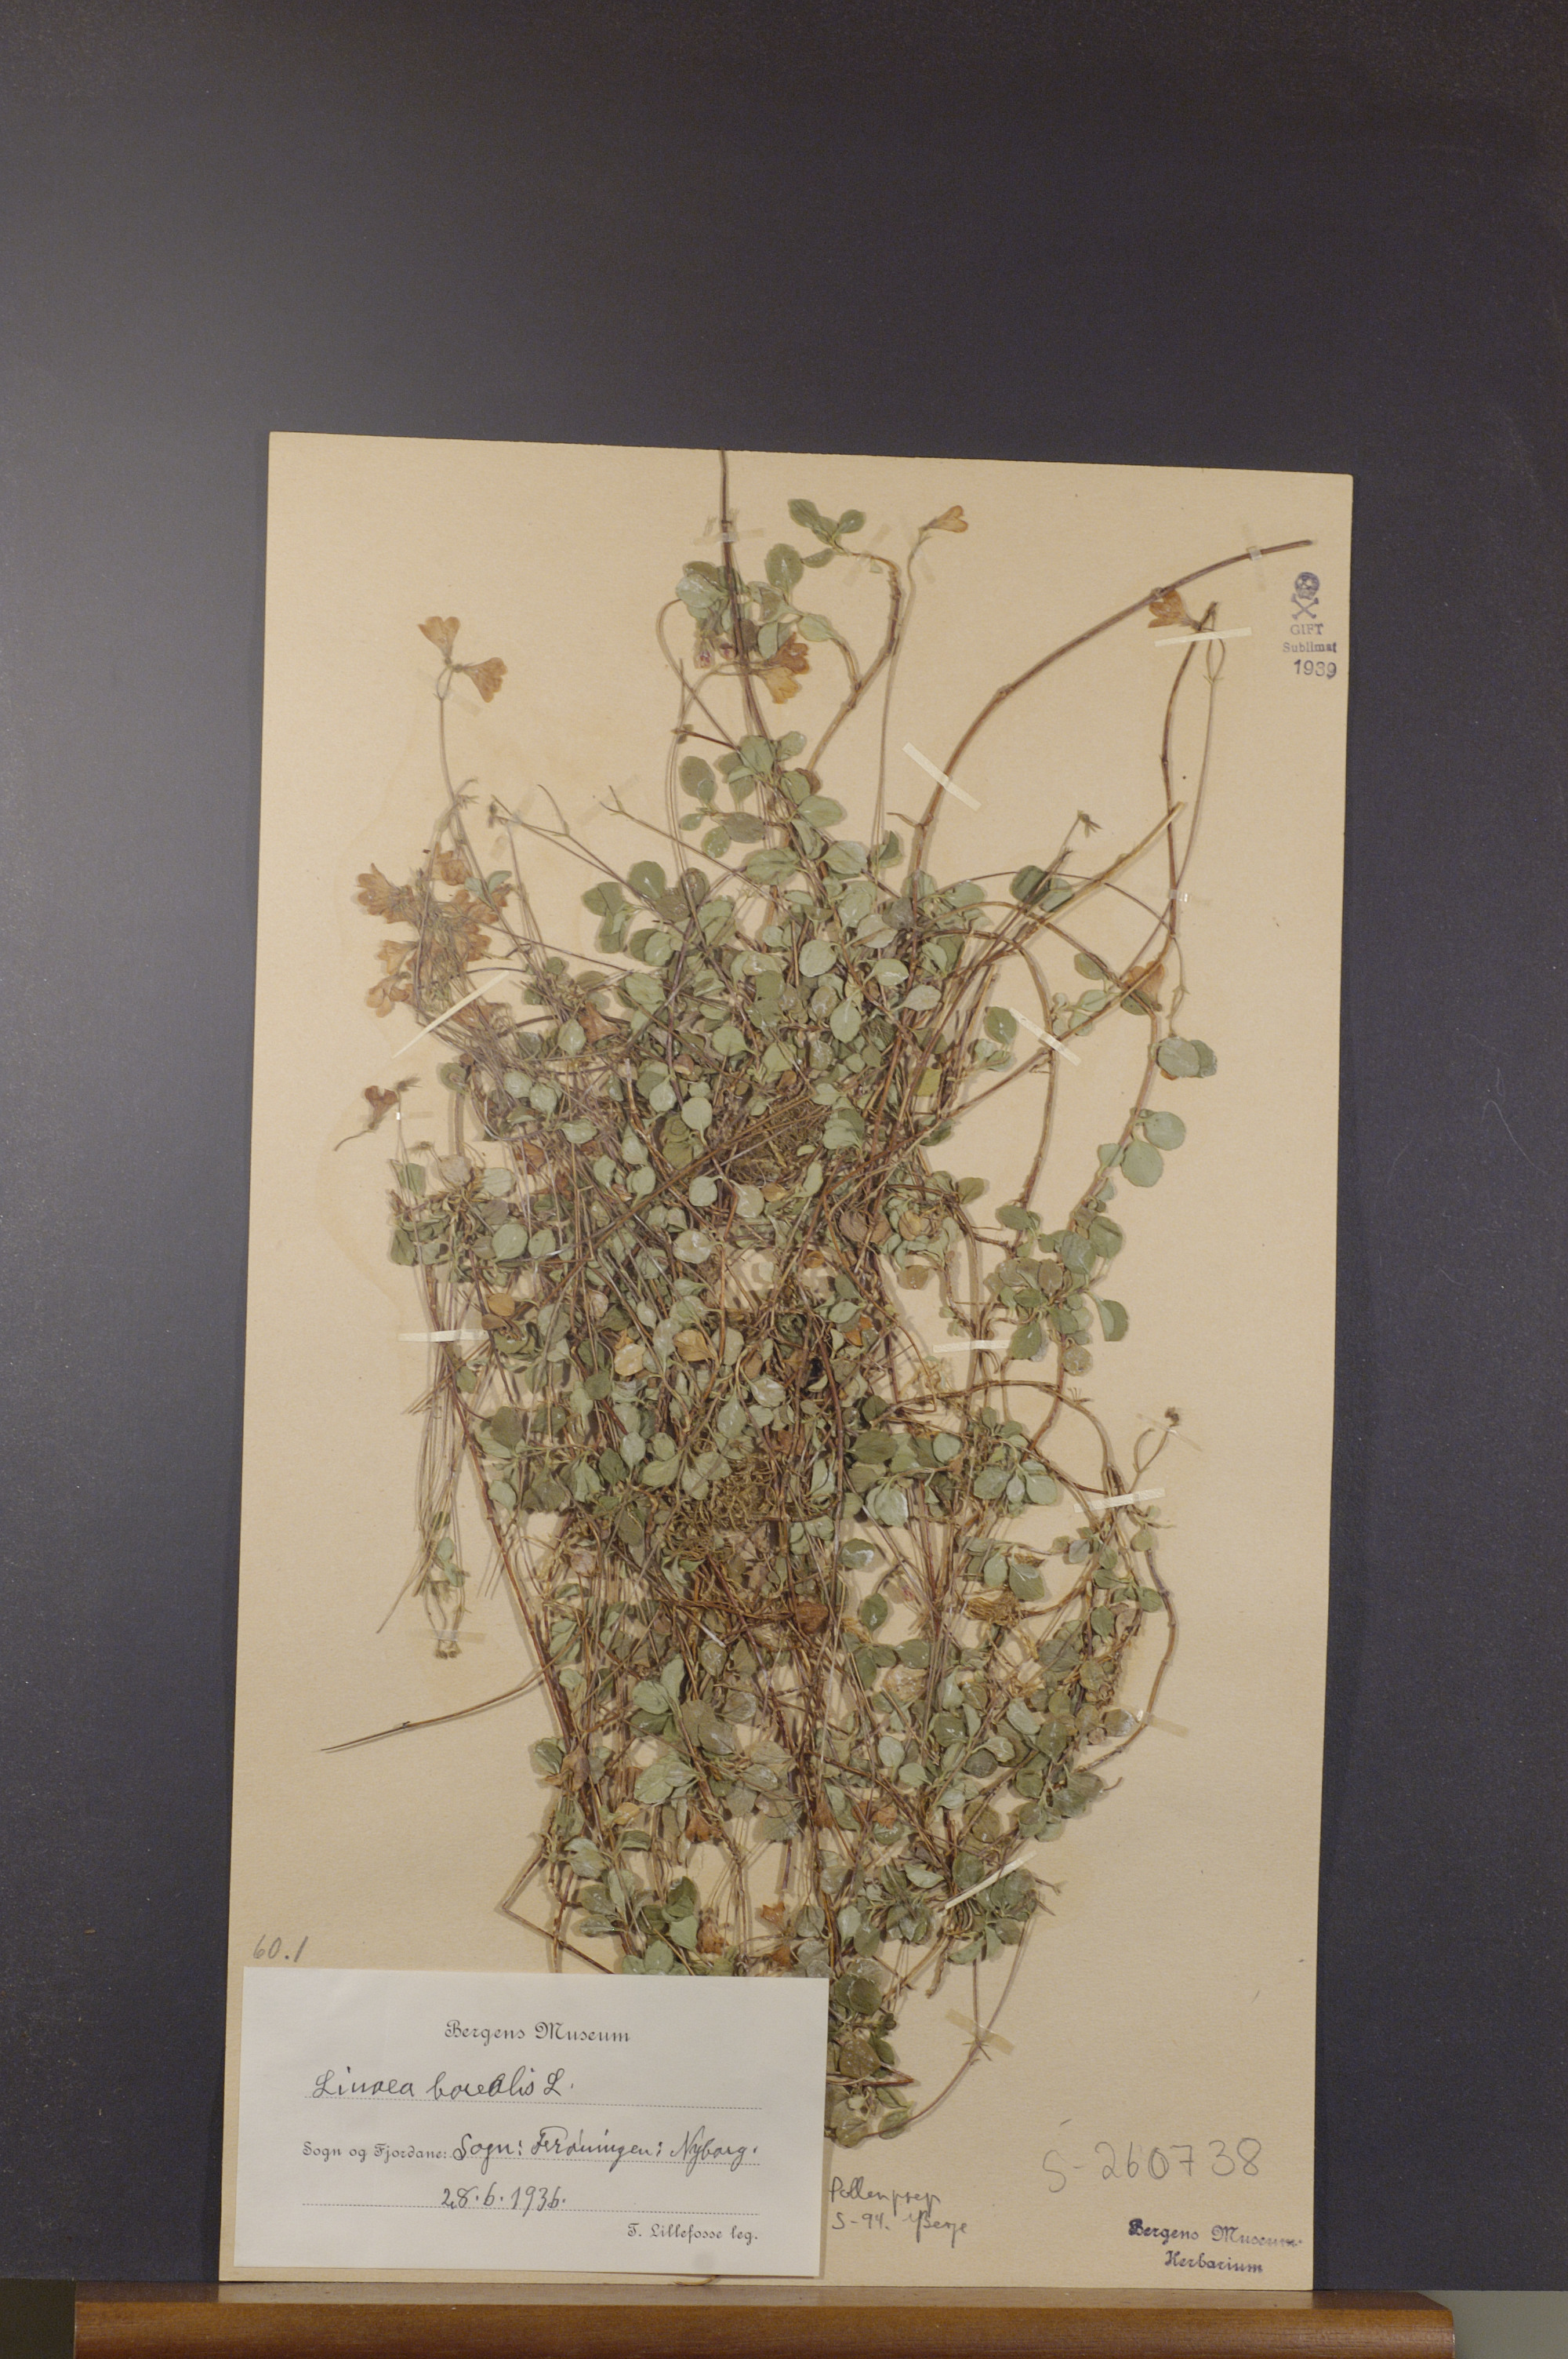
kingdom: Plantae
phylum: Tracheophyta
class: Magnoliopsida
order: Dipsacales
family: Caprifoliaceae
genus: Linnaea
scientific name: Linnaea borealis
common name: Twinflower
